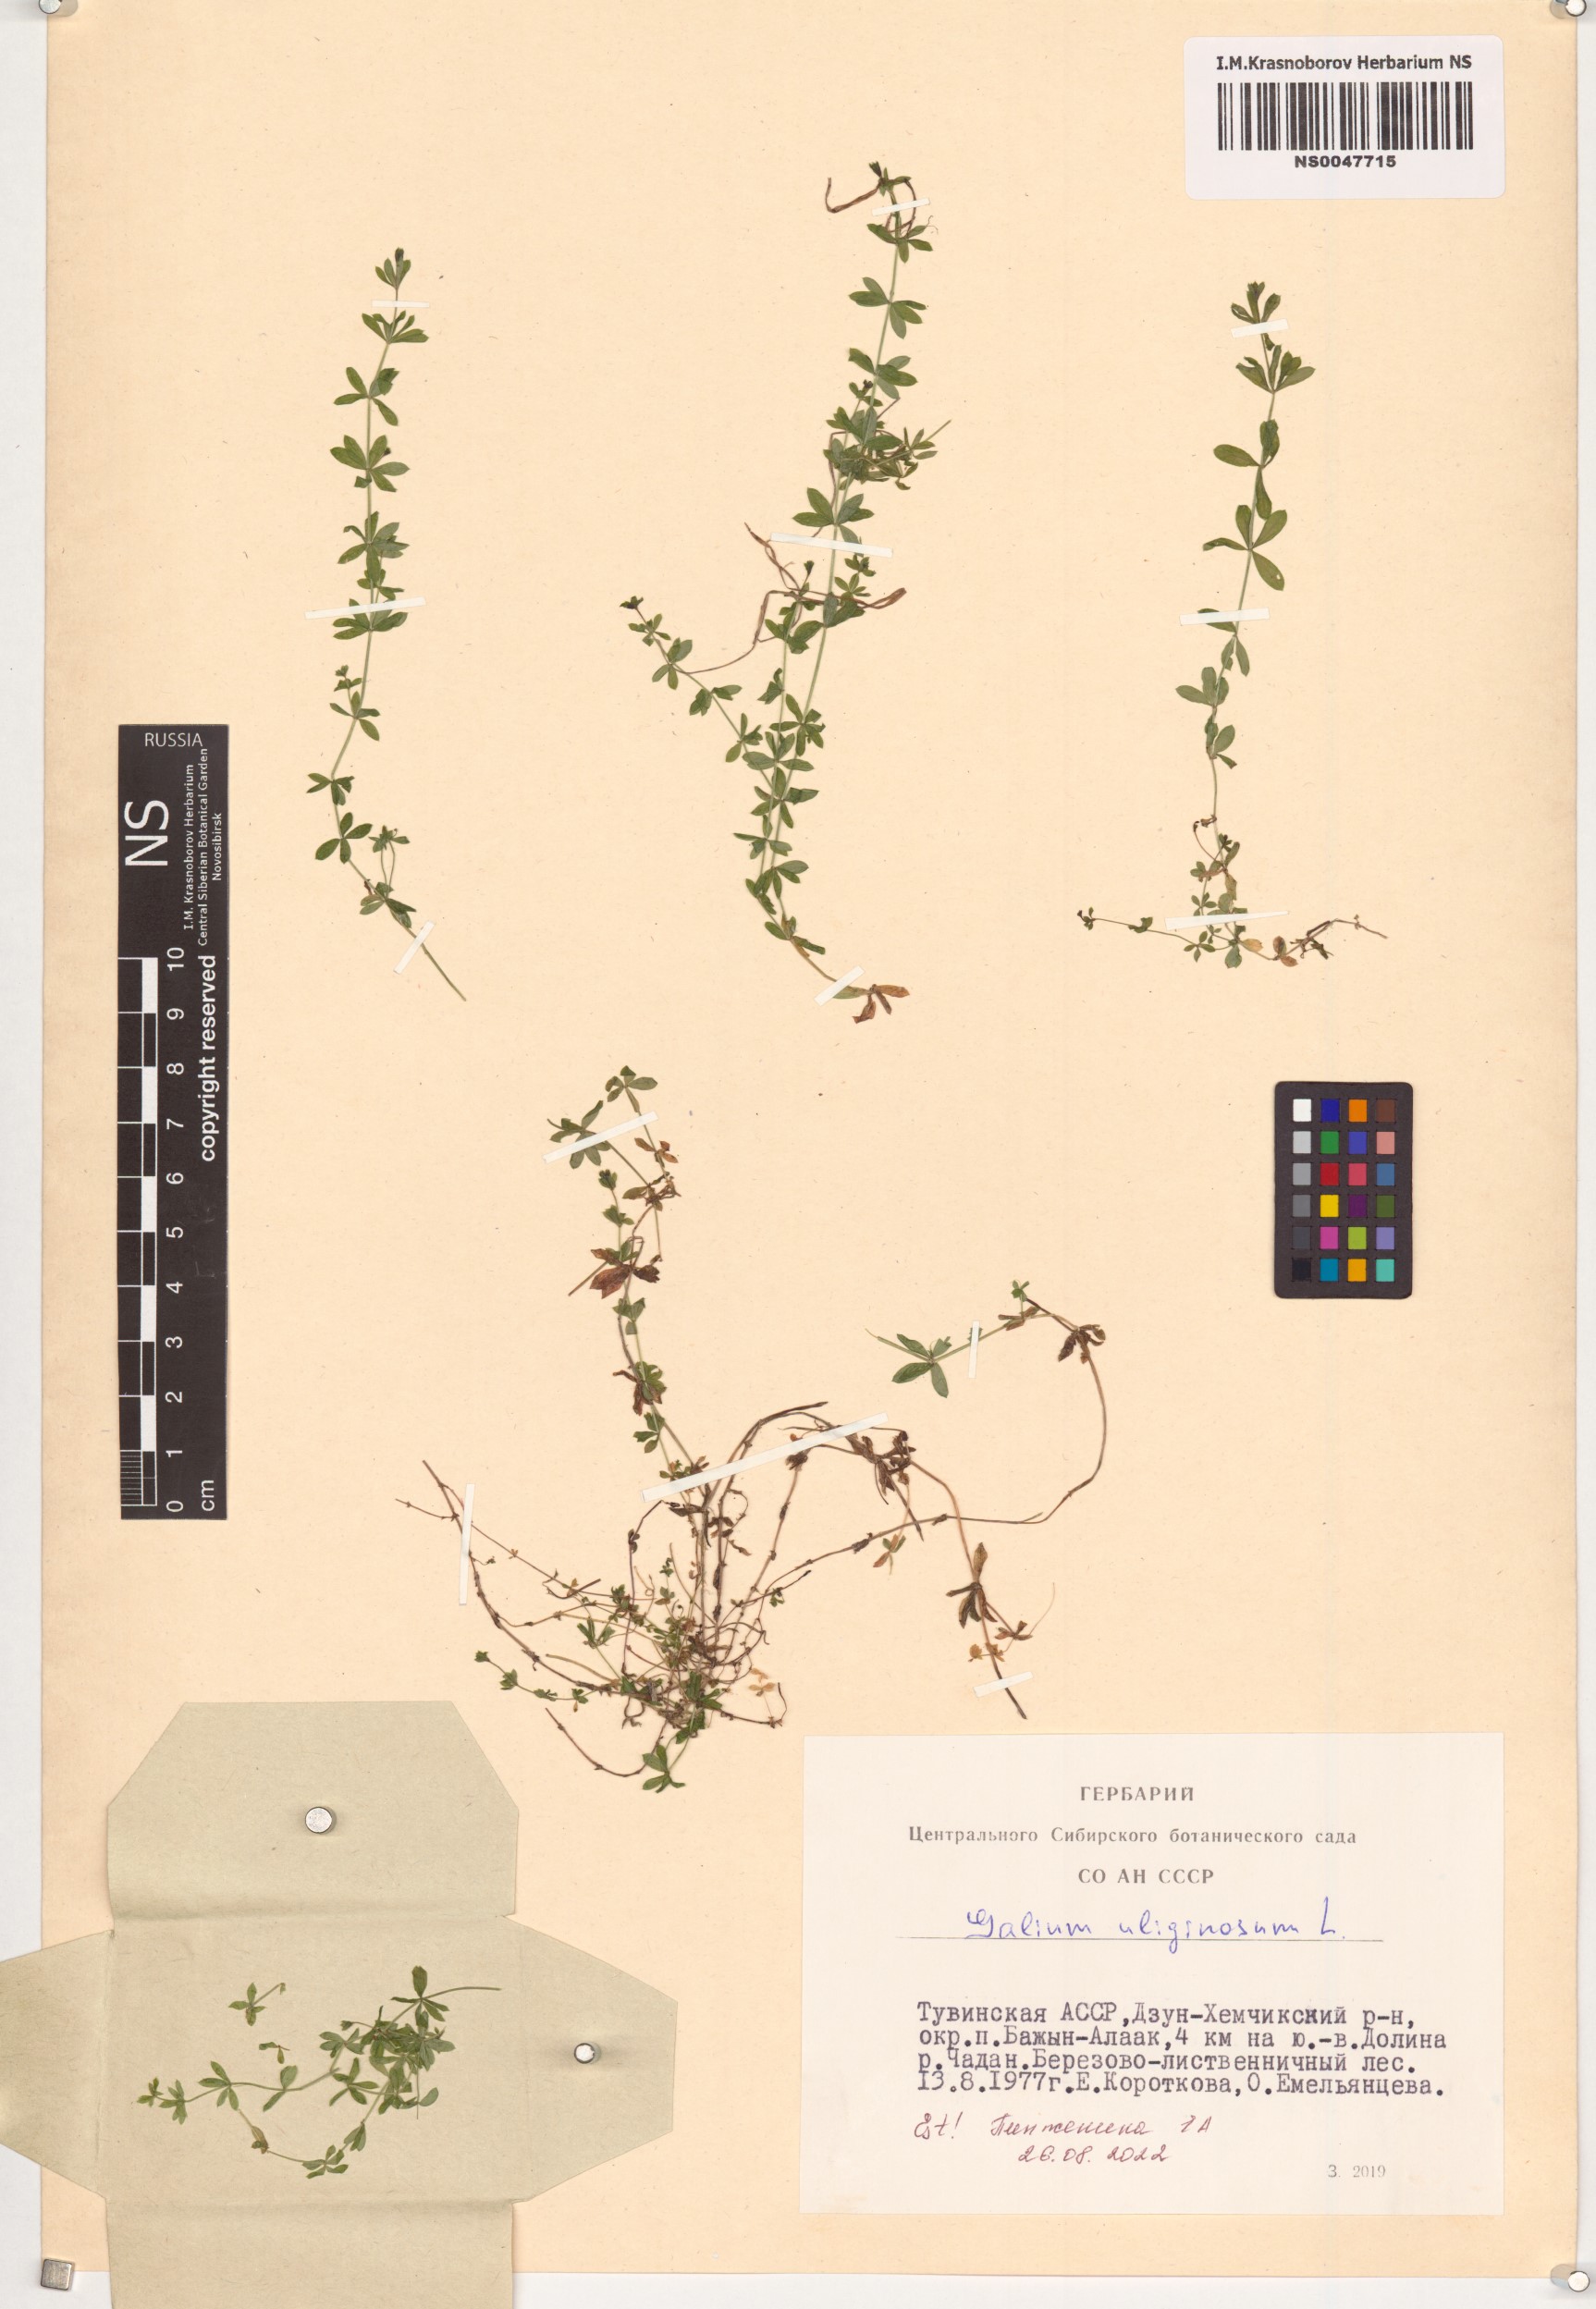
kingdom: Plantae
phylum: Tracheophyta
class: Magnoliopsida
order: Gentianales
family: Rubiaceae
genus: Galium
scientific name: Galium uliginosum
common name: Fen bedstraw
